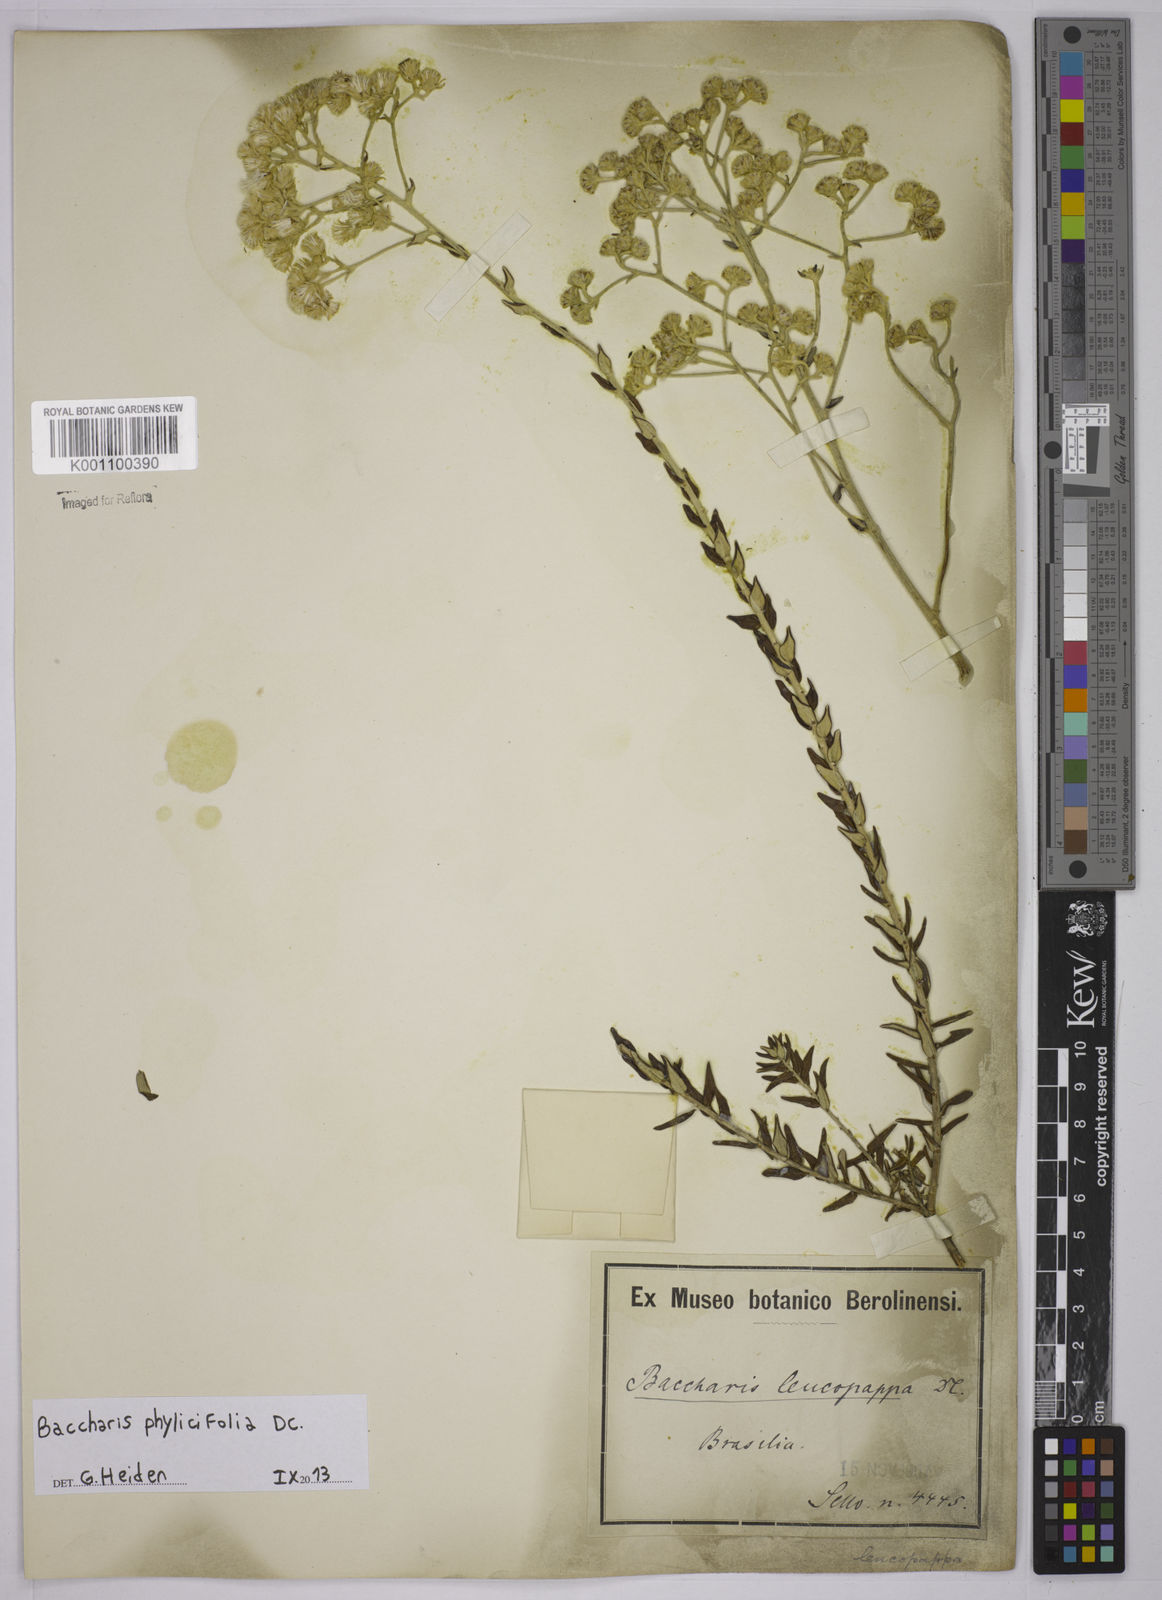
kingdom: Plantae
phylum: Tracheophyta
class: Magnoliopsida
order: Asterales
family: Asteraceae
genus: Baccharis
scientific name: Baccharis leucopappa
